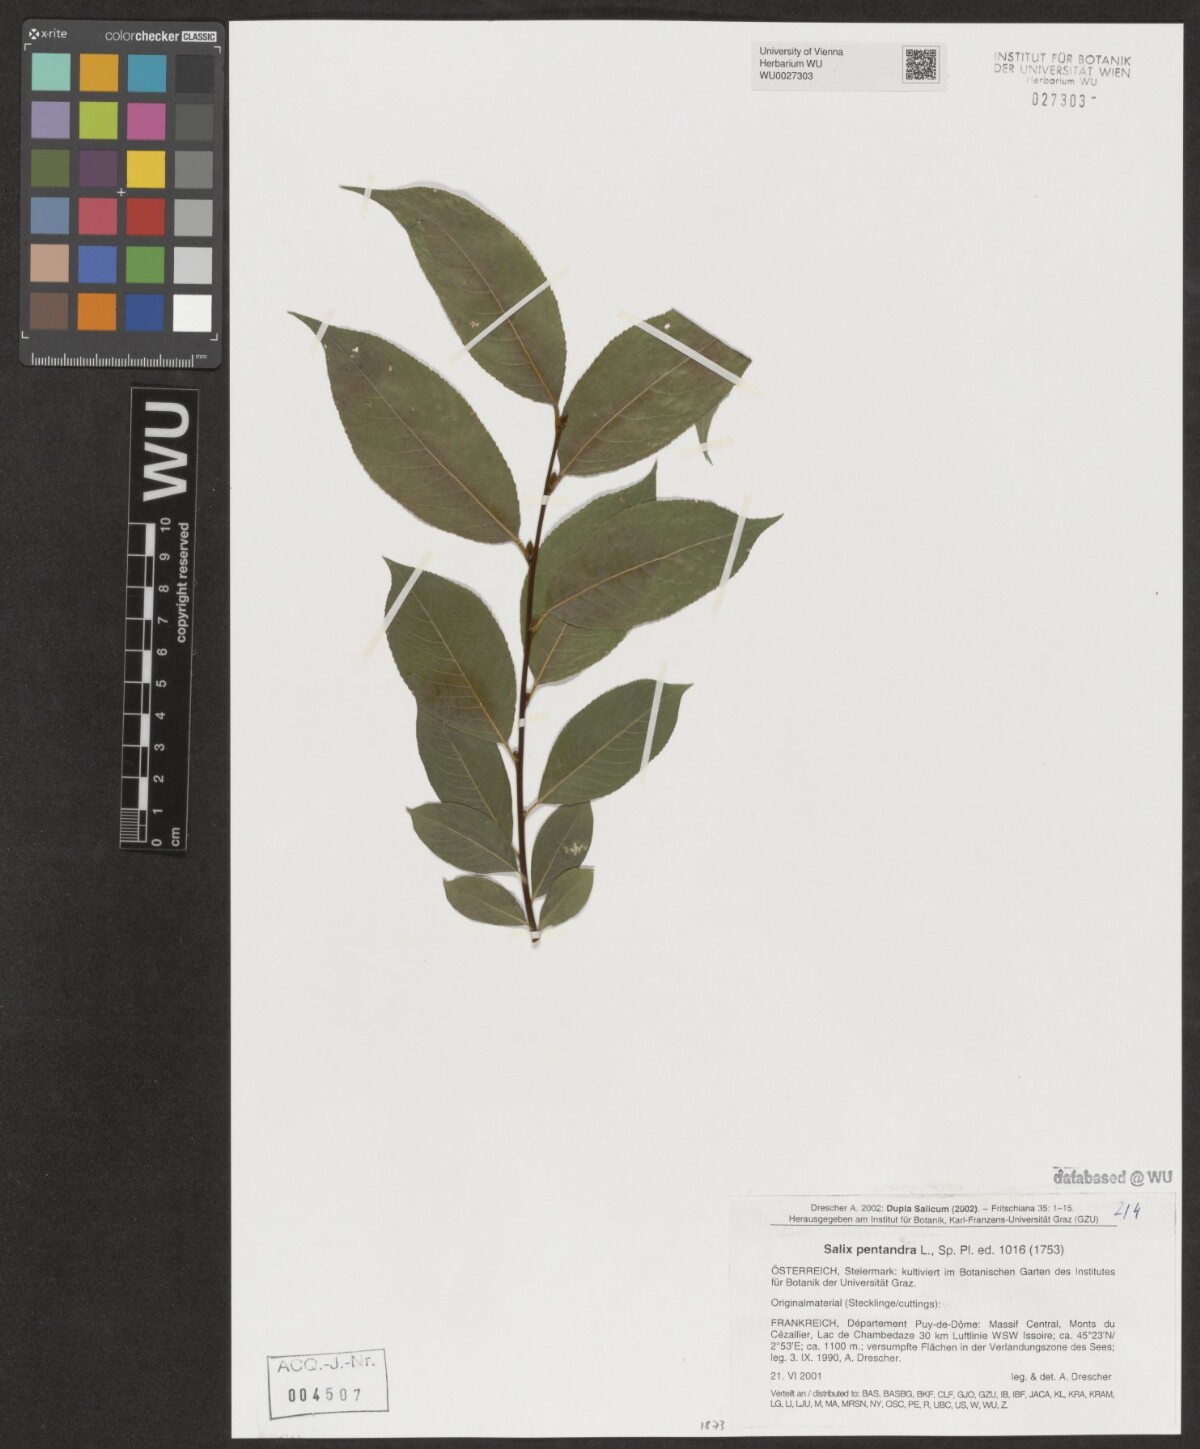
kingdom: Plantae
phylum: Tracheophyta
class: Magnoliopsida
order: Malpighiales
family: Salicaceae
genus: Salix
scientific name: Salix pentandra
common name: Bay willow
